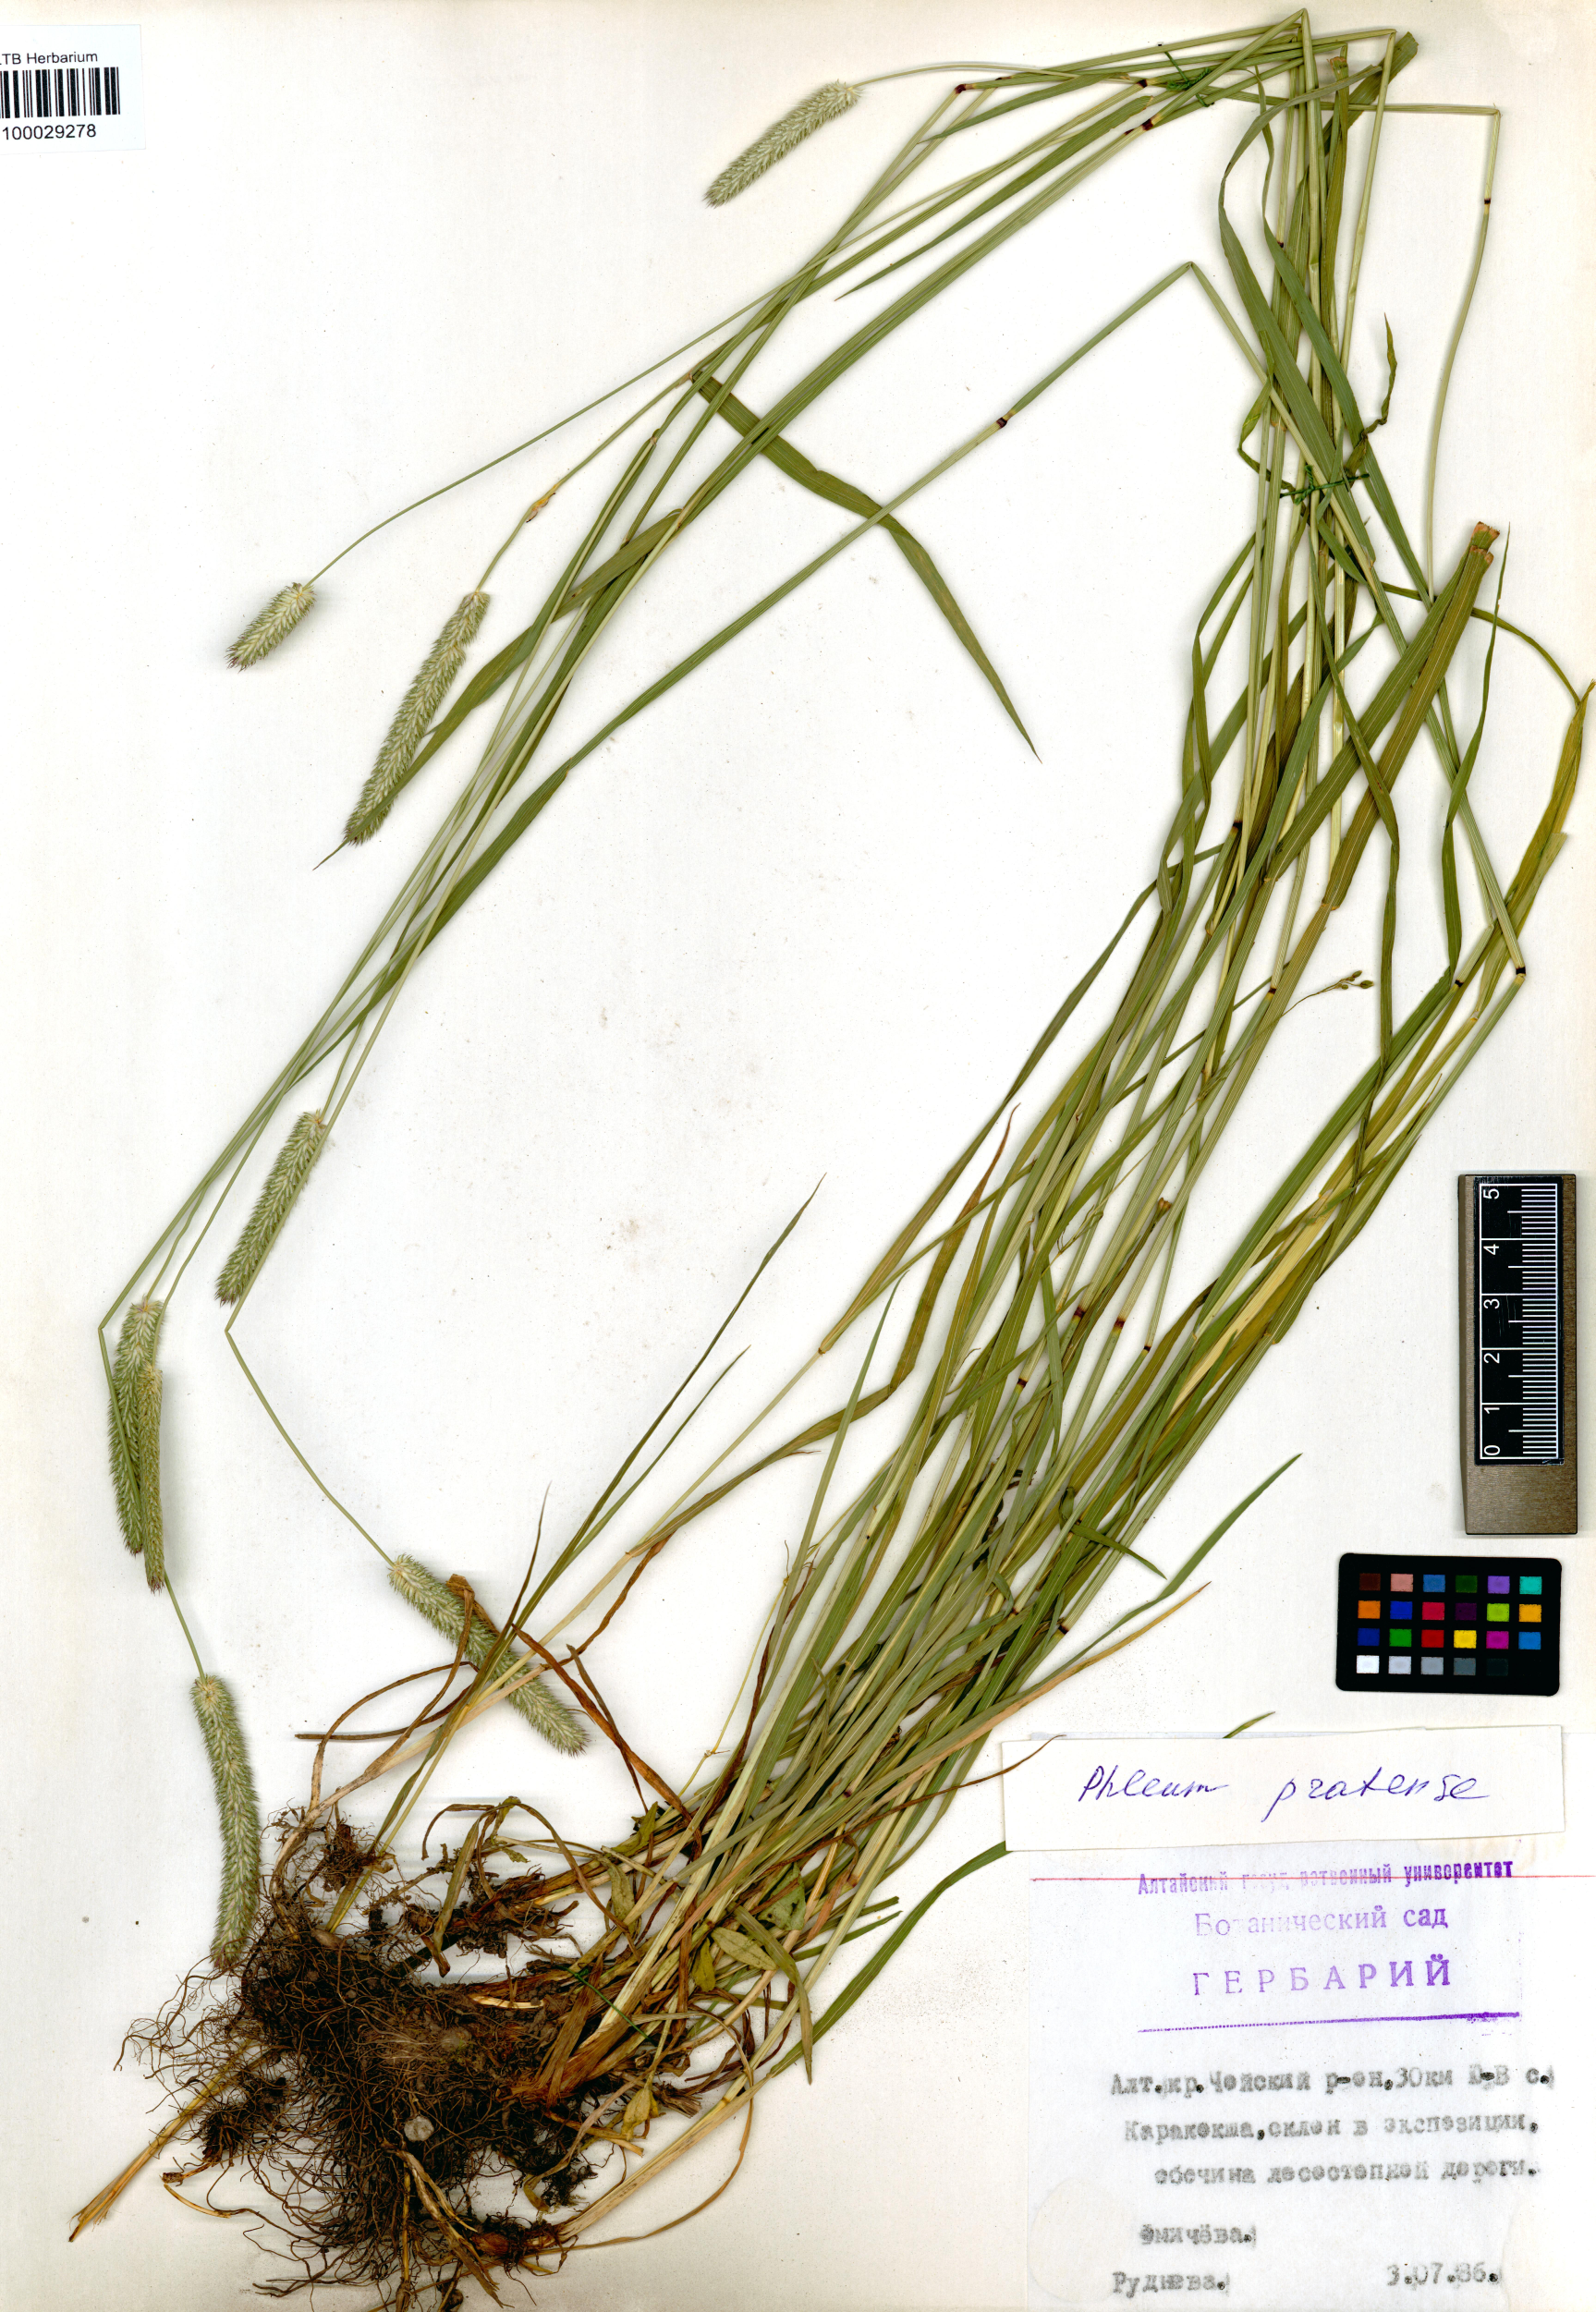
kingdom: Plantae
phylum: Tracheophyta
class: Liliopsida
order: Poales
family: Poaceae
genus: Phleum
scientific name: Phleum pratense
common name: Timothy grass
